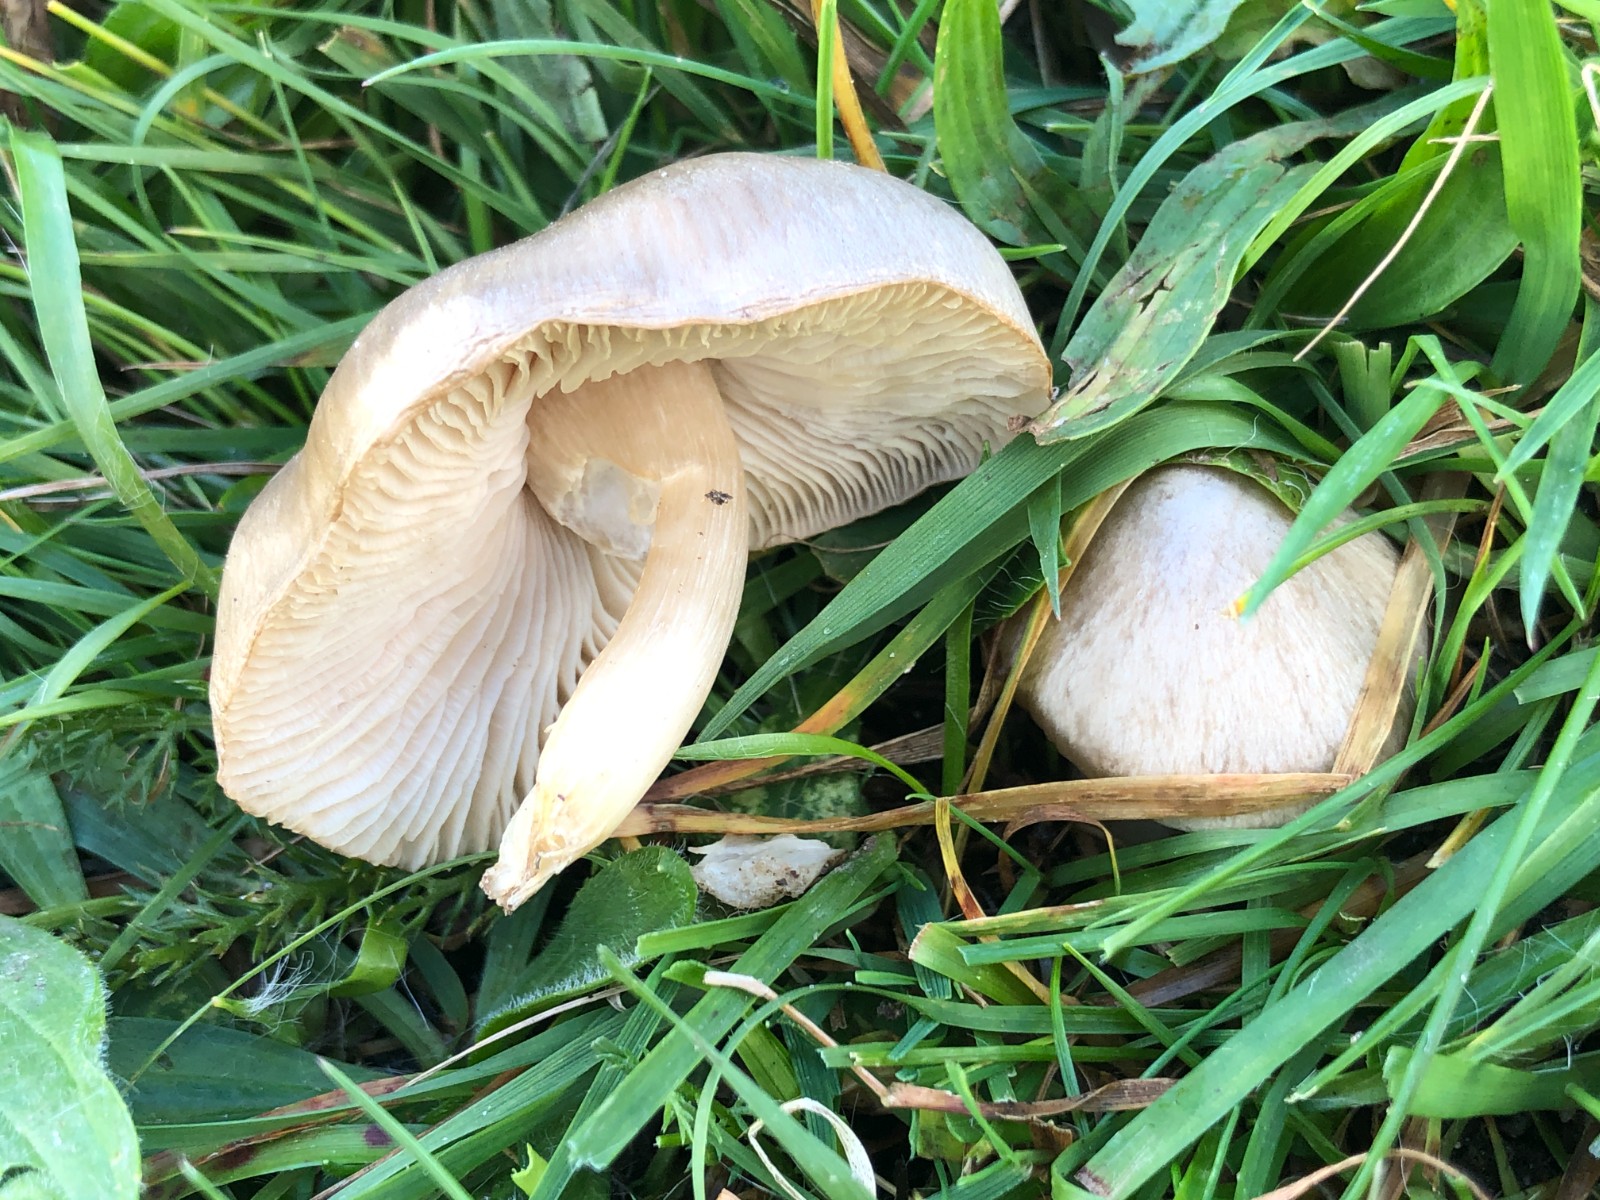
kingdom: Fungi
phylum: Basidiomycota
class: Agaricomycetes
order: Agaricales
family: Entolomataceae
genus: Entoloma
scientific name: Entoloma prunuloides
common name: mel-rødblad
